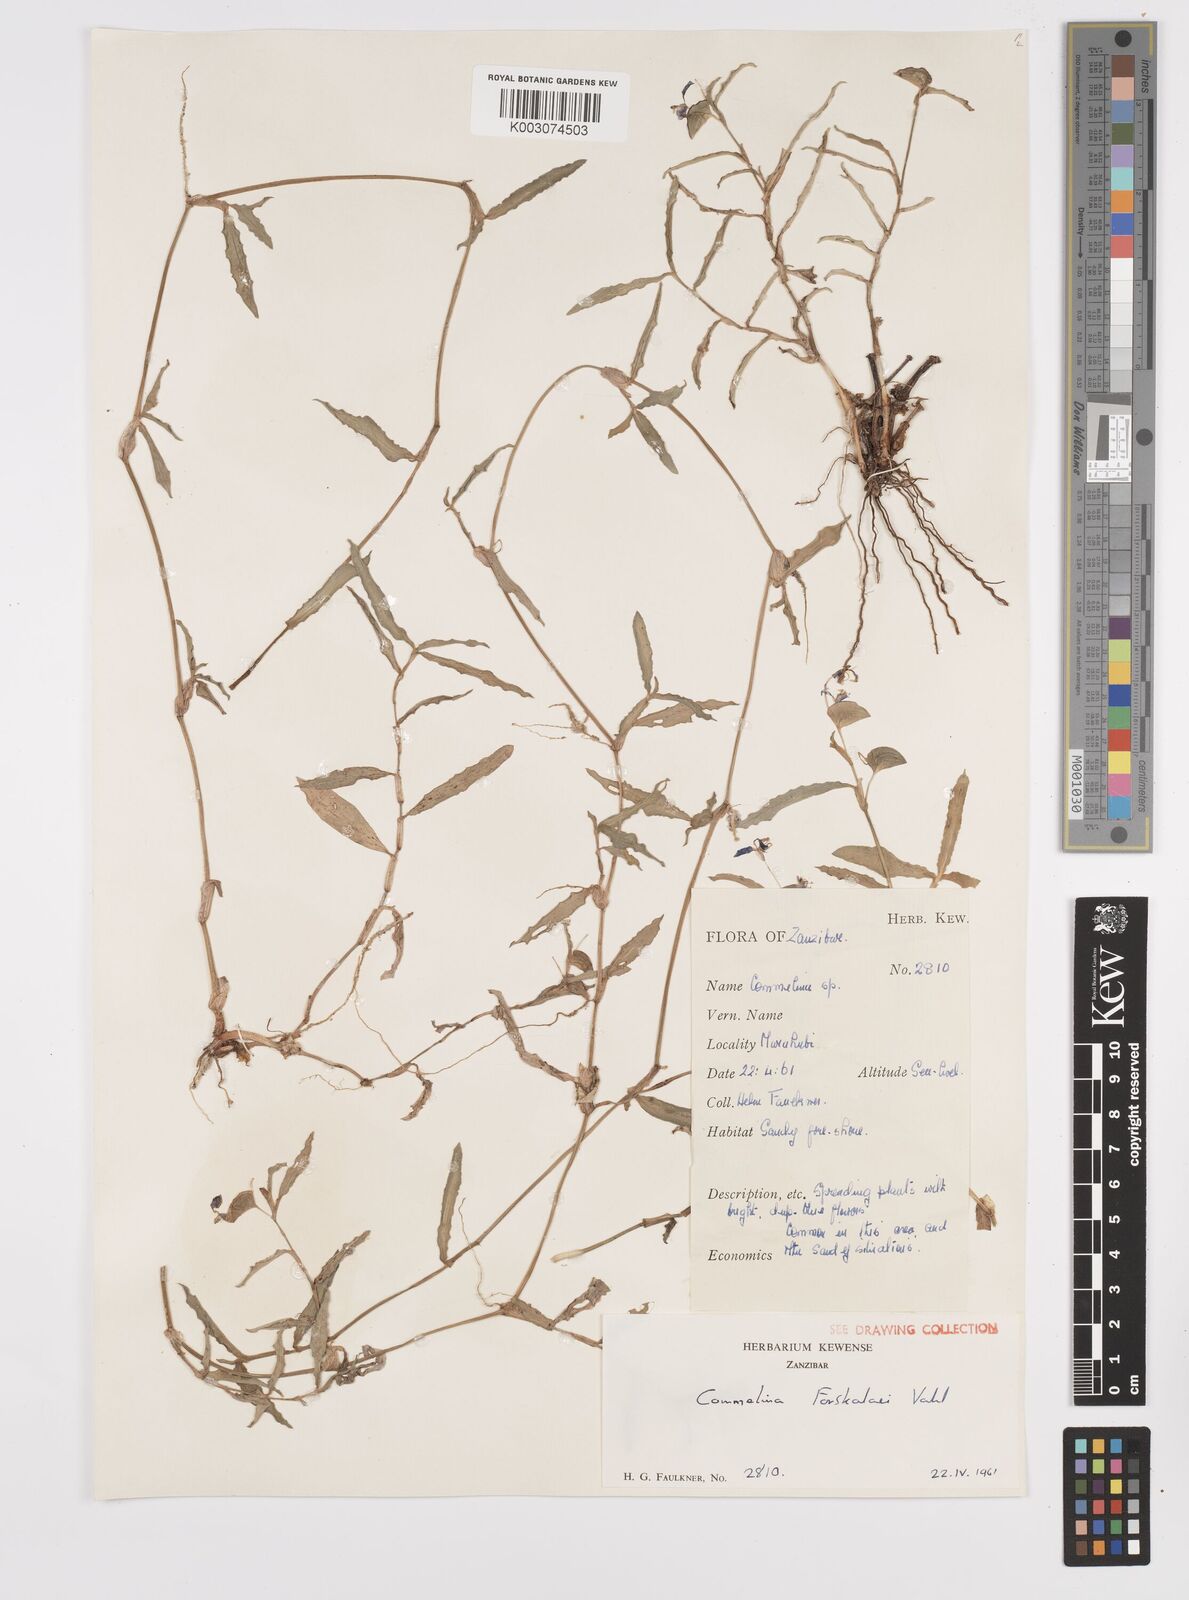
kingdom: Plantae
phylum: Tracheophyta
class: Liliopsida
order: Commelinales
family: Commelinaceae
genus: Commelina
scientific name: Commelina forskaolii
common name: Rat's ear
